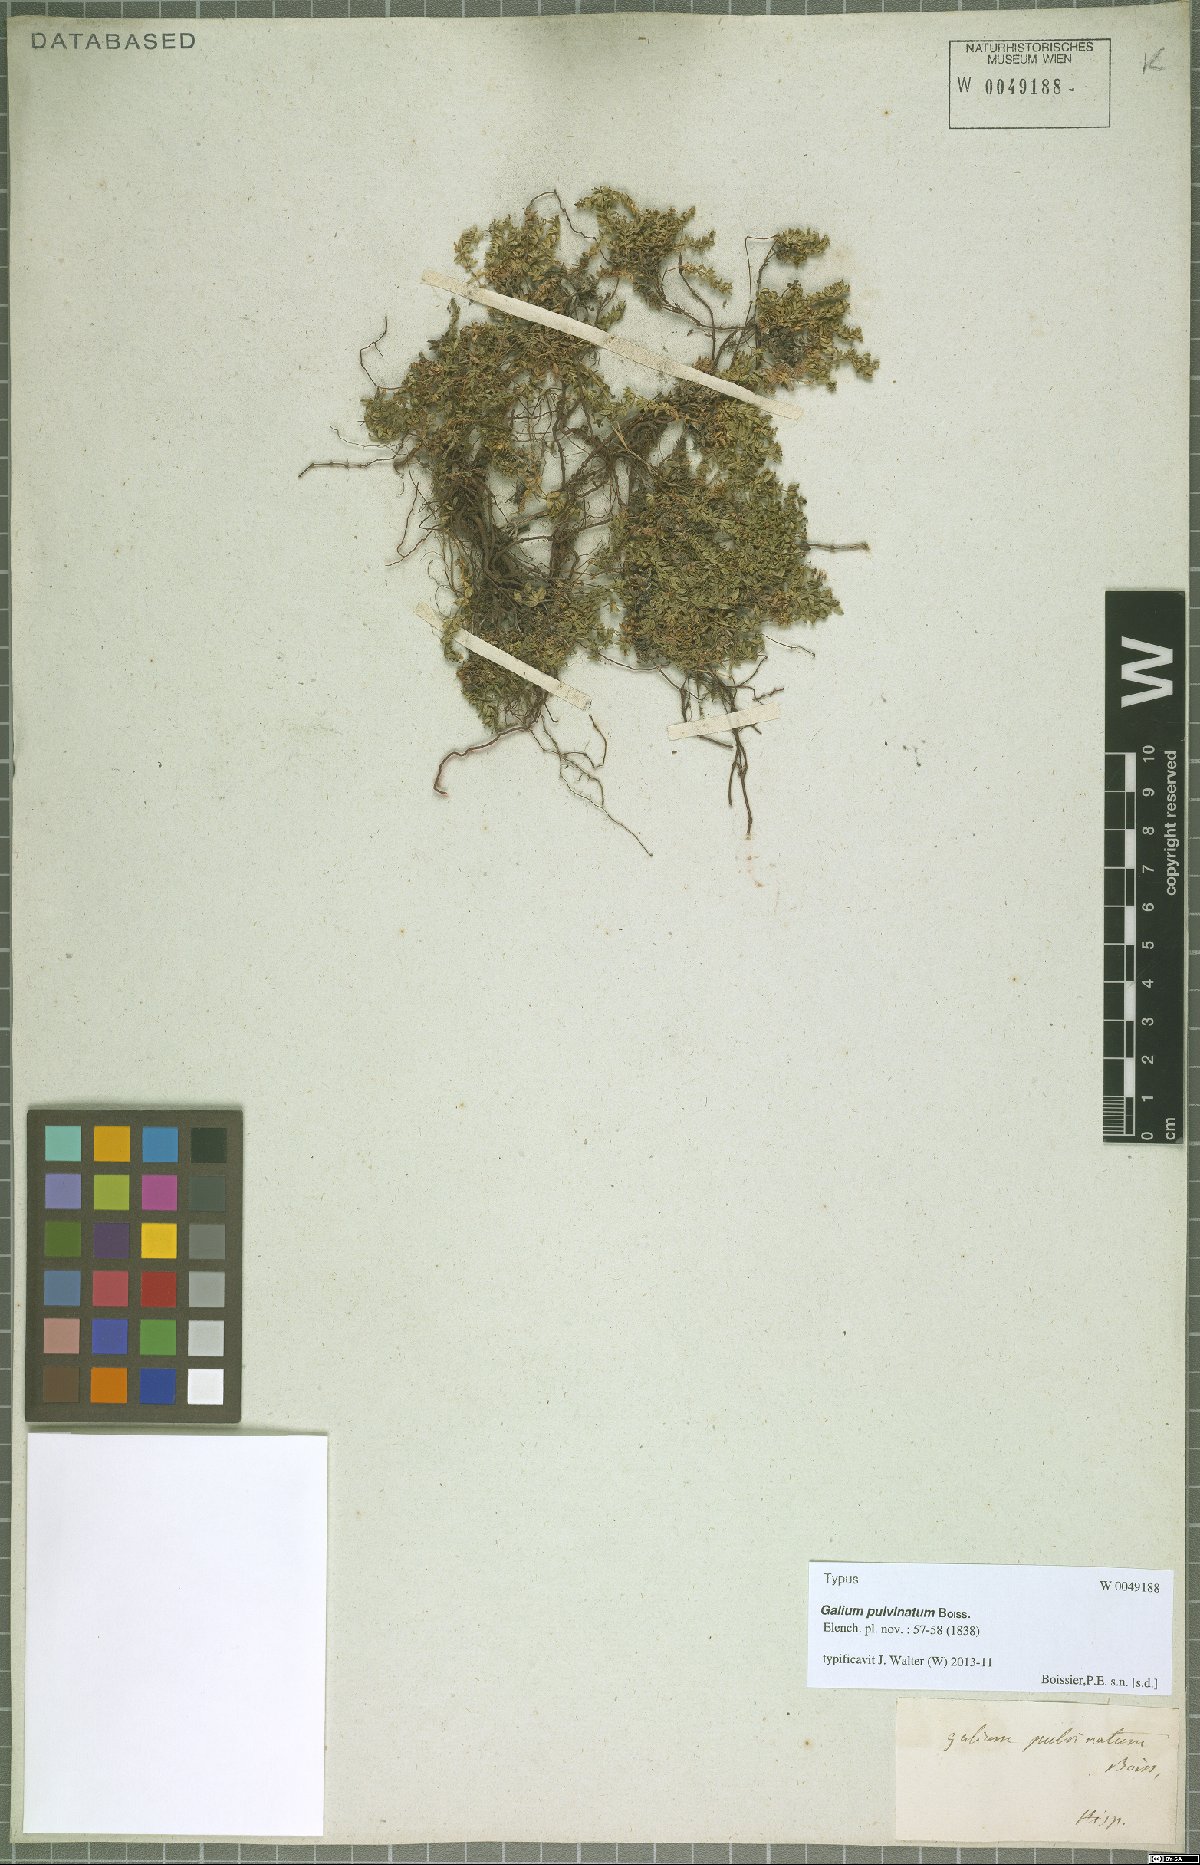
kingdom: Plantae
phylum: Tracheophyta
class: Magnoliopsida
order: Gentianales
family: Rubiaceae
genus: Galium
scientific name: Galium pulvinatum
